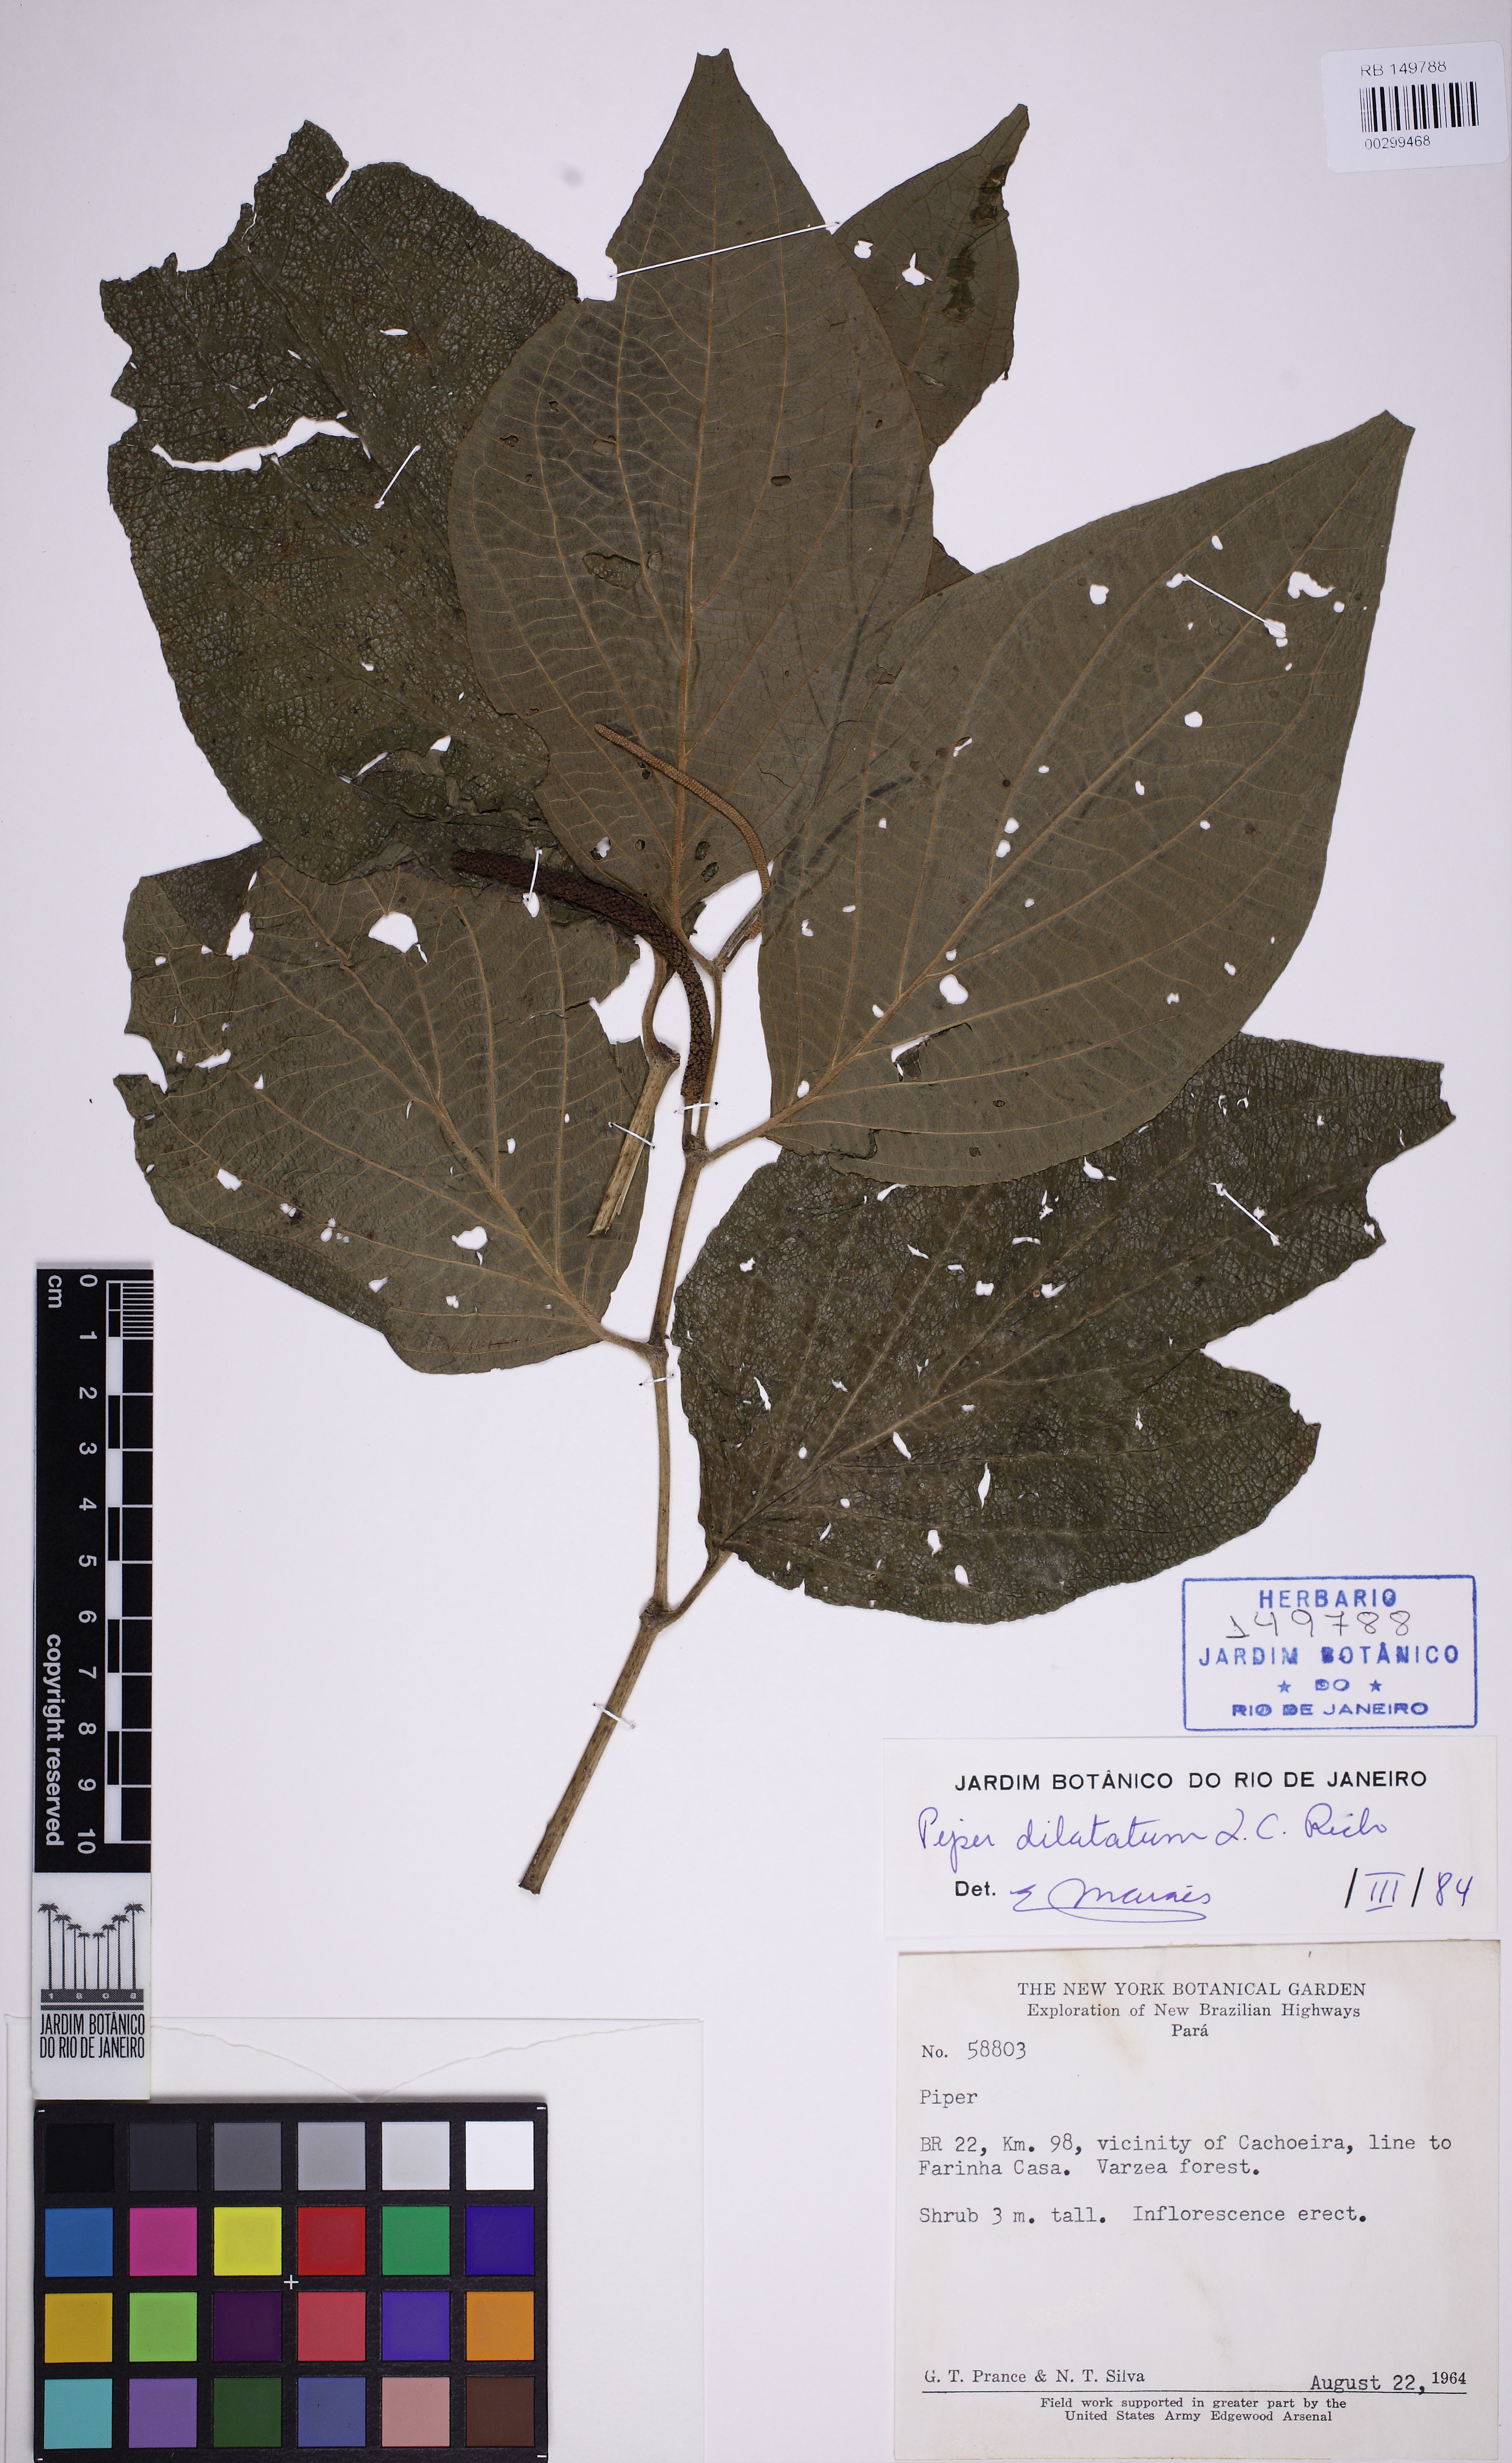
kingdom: Plantae
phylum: Tracheophyta
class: Magnoliopsida
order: Piperales
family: Piperaceae
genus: Piper
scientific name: Piper dilatatum
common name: Higuillo
